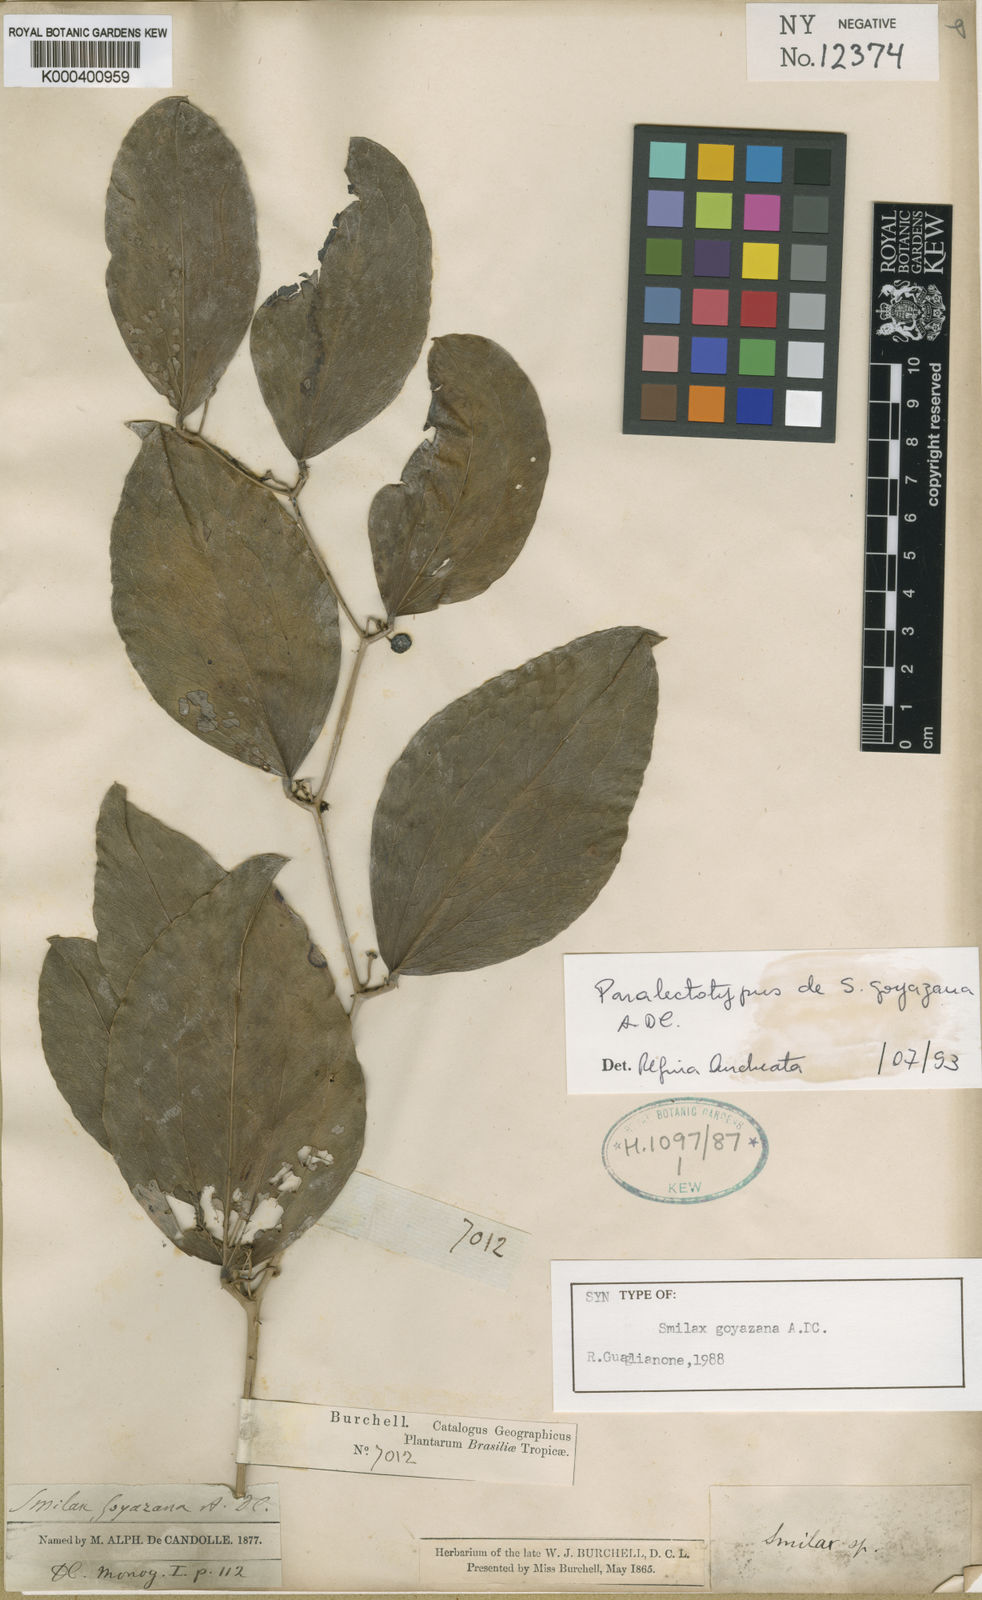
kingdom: Plantae
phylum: Tracheophyta
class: Liliopsida
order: Liliales
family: Smilacaceae
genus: Smilax
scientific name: Smilax goyazana
